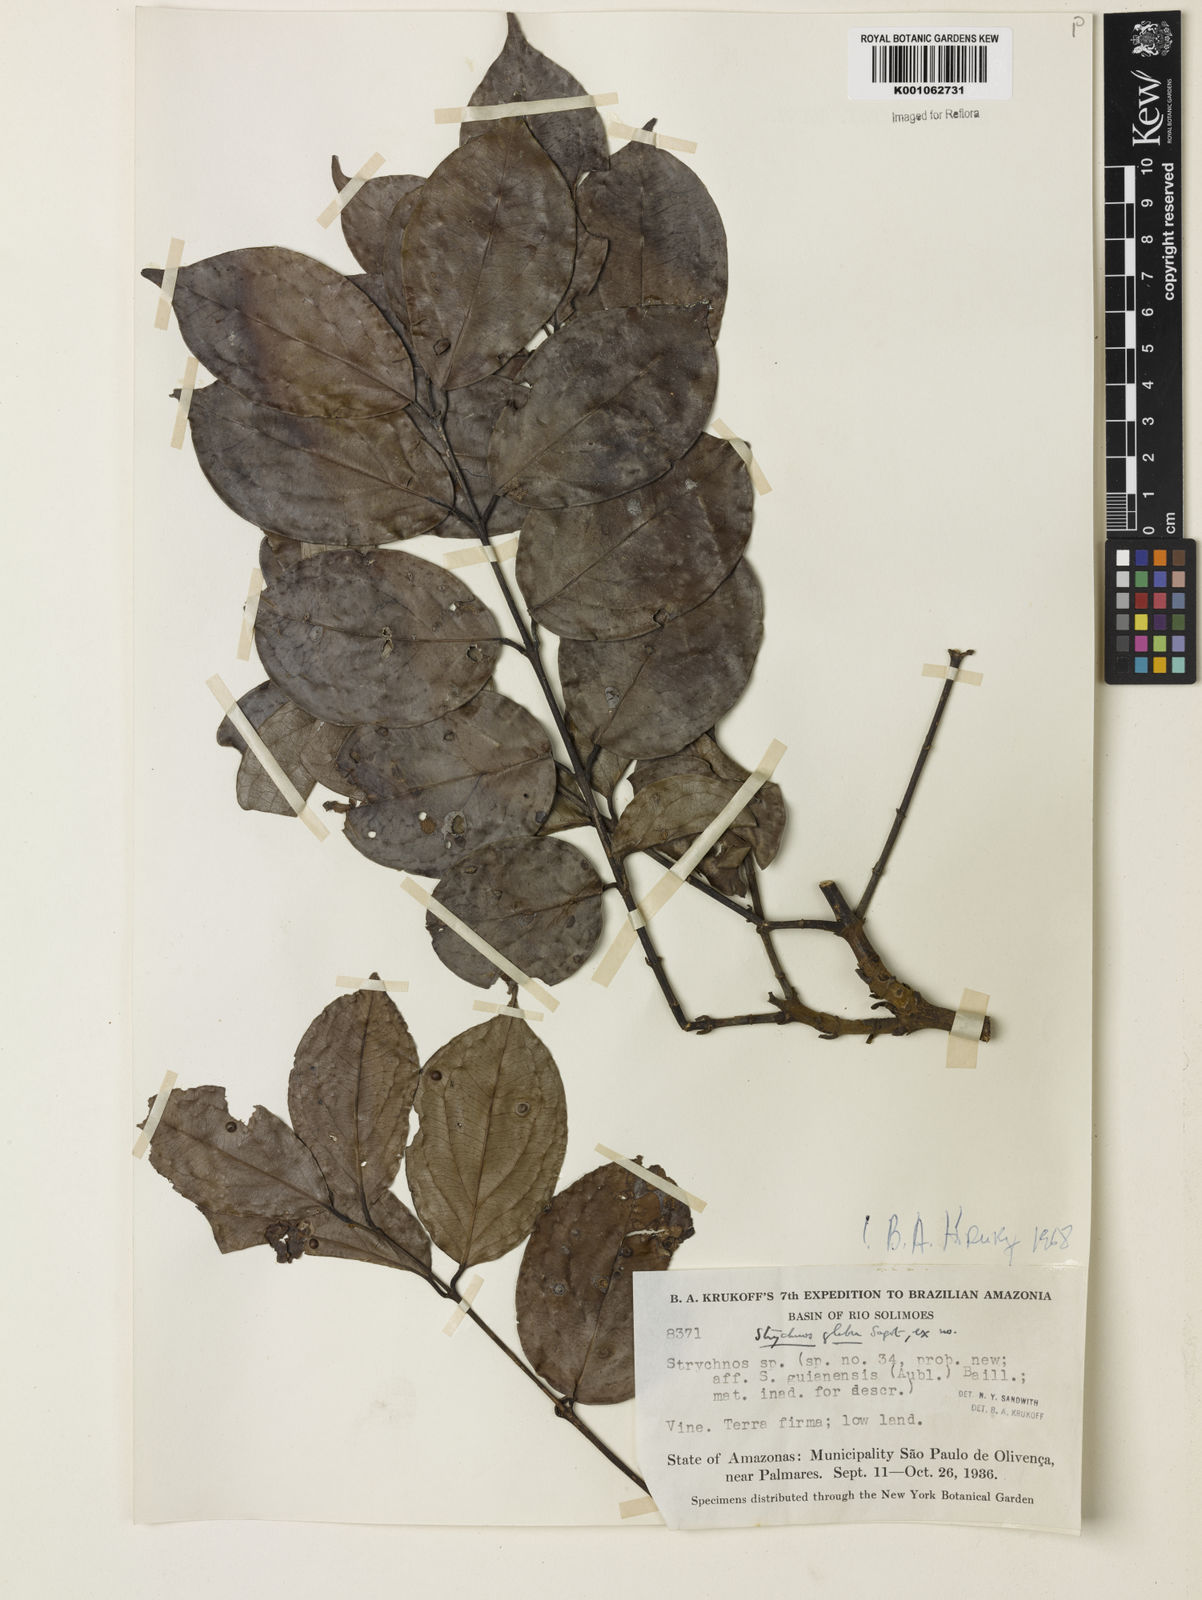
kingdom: Plantae
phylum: Tracheophyta
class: Magnoliopsida
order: Gentianales
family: Loganiaceae
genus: Strychnos
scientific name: Strychnos glabra
